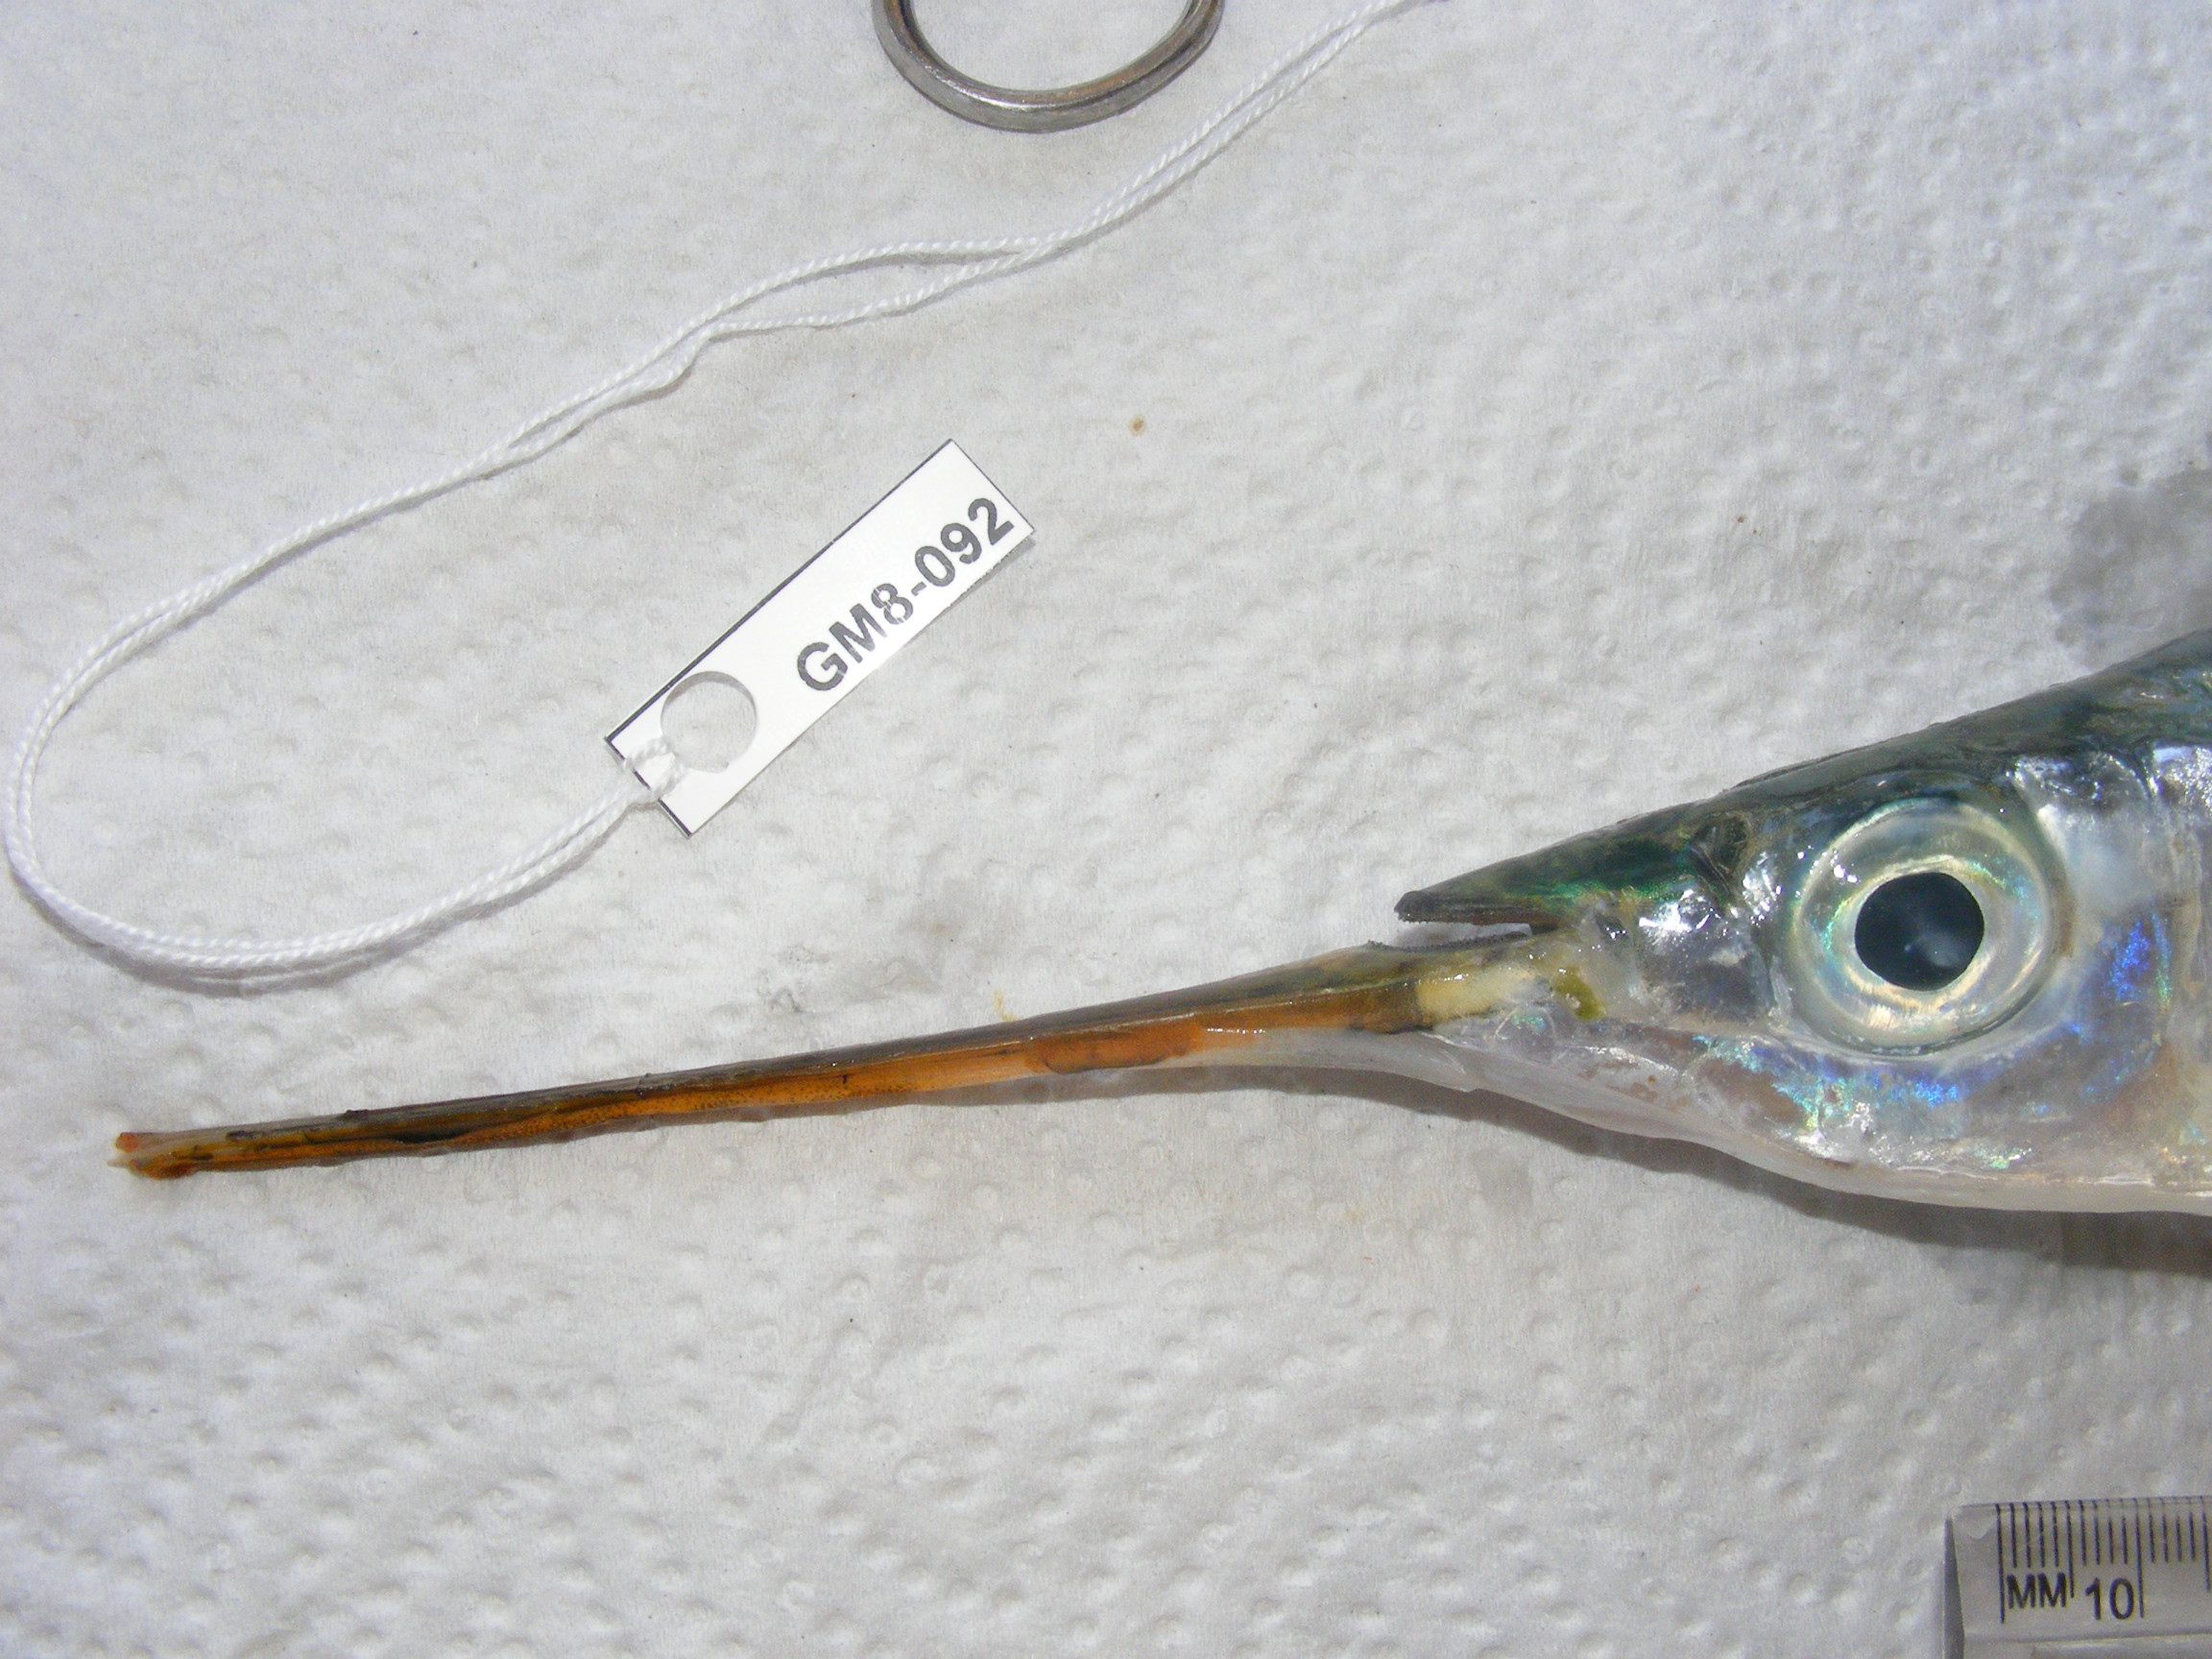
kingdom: Animalia
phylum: Chordata
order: Beloniformes
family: Hemiramphidae
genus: Hemiramphus
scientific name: Hemiramphus far
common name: Black-barred halfbeak
